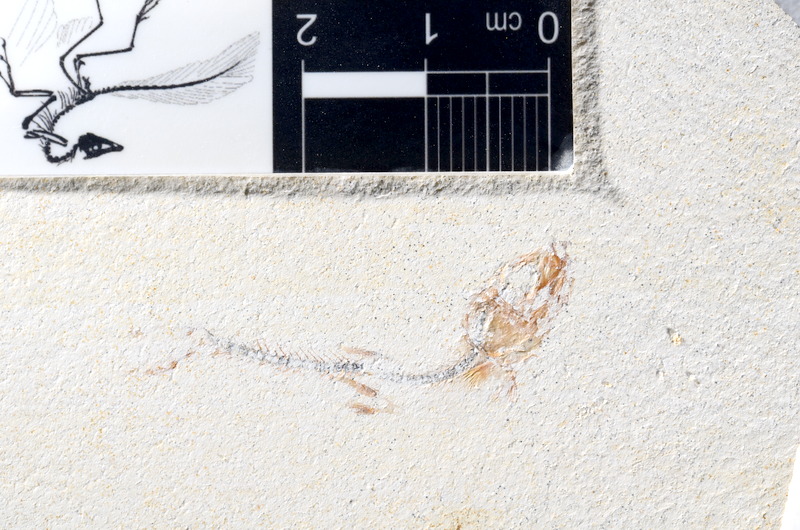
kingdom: Animalia
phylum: Chordata
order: Salmoniformes
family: Orthogonikleithridae
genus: Orthogonikleithrus
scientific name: Orthogonikleithrus hoelli
